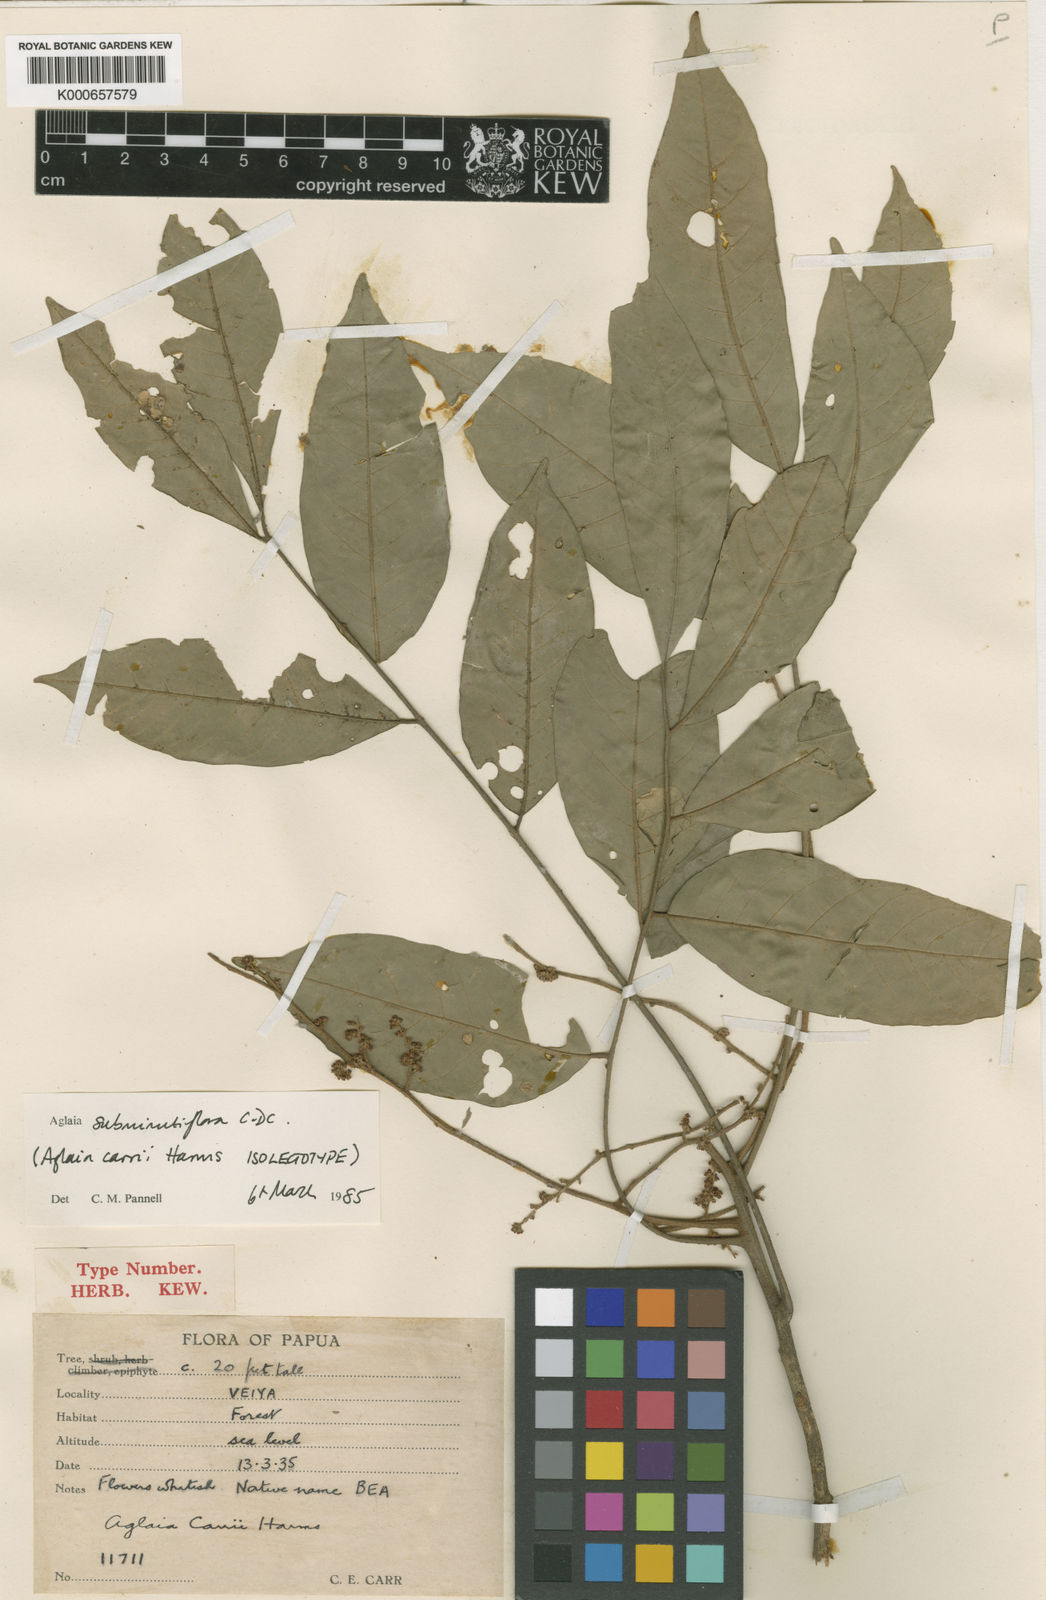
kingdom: Plantae
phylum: Tracheophyta
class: Magnoliopsida
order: Sapindales
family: Meliaceae
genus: Aglaia
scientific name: Aglaia subminutiflora
